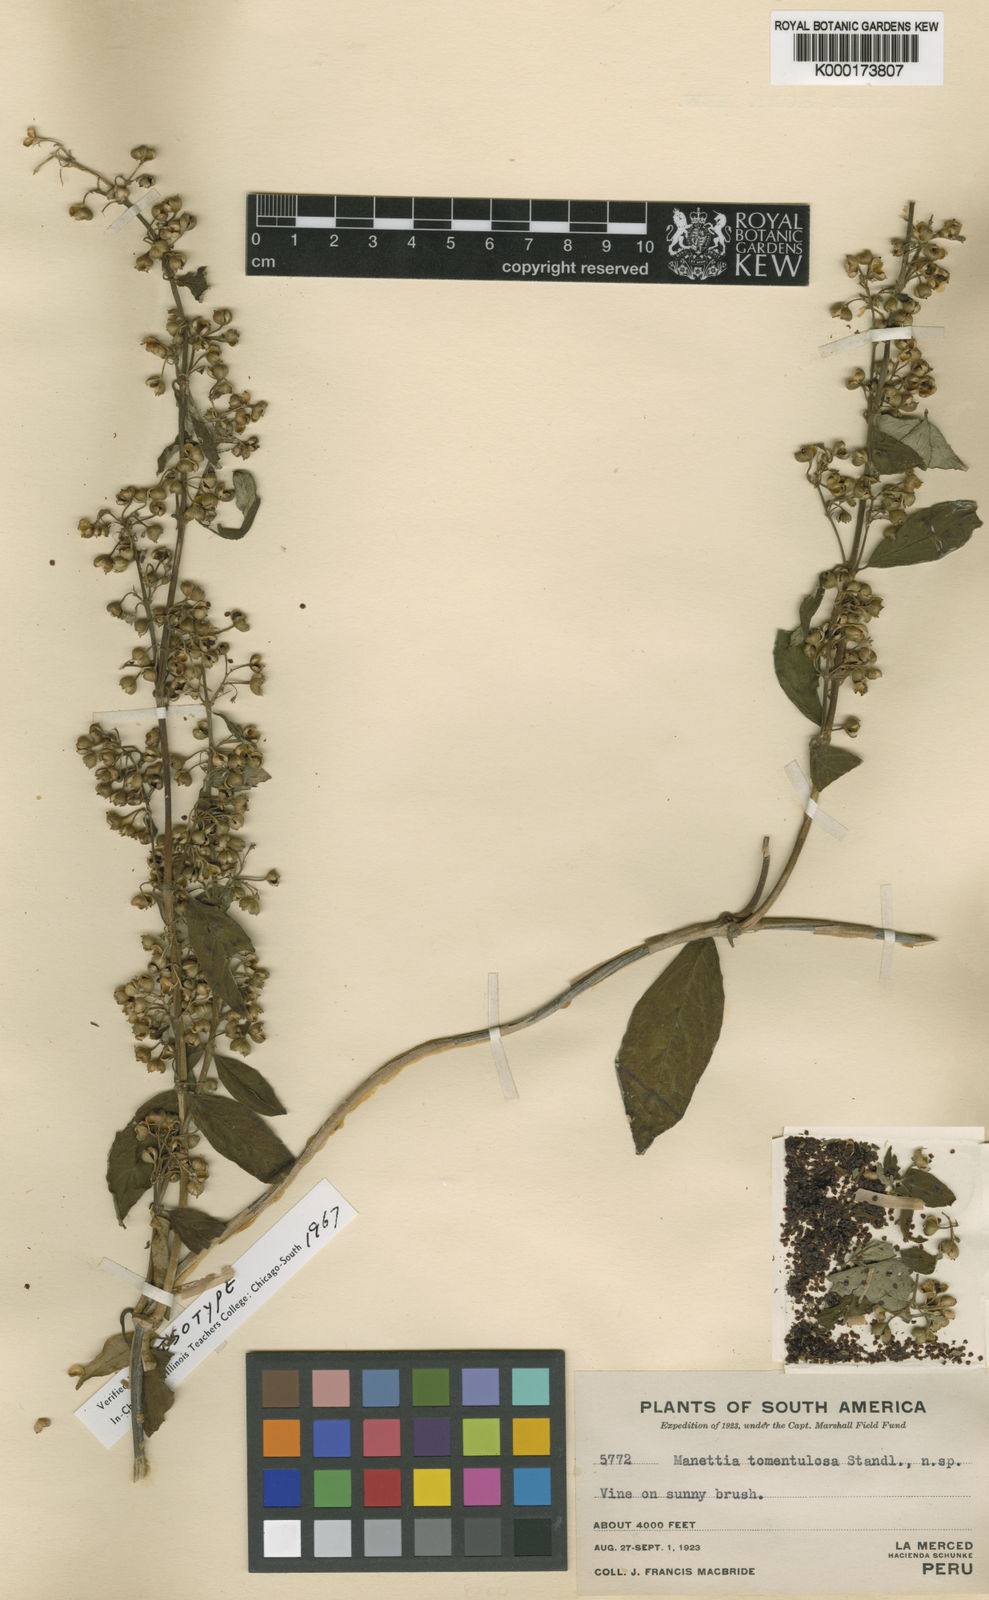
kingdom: Plantae
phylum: Tracheophyta
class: Magnoliopsida
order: Gentianales
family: Rubiaceae
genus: Manettia
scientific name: Manettia tomentulosa
